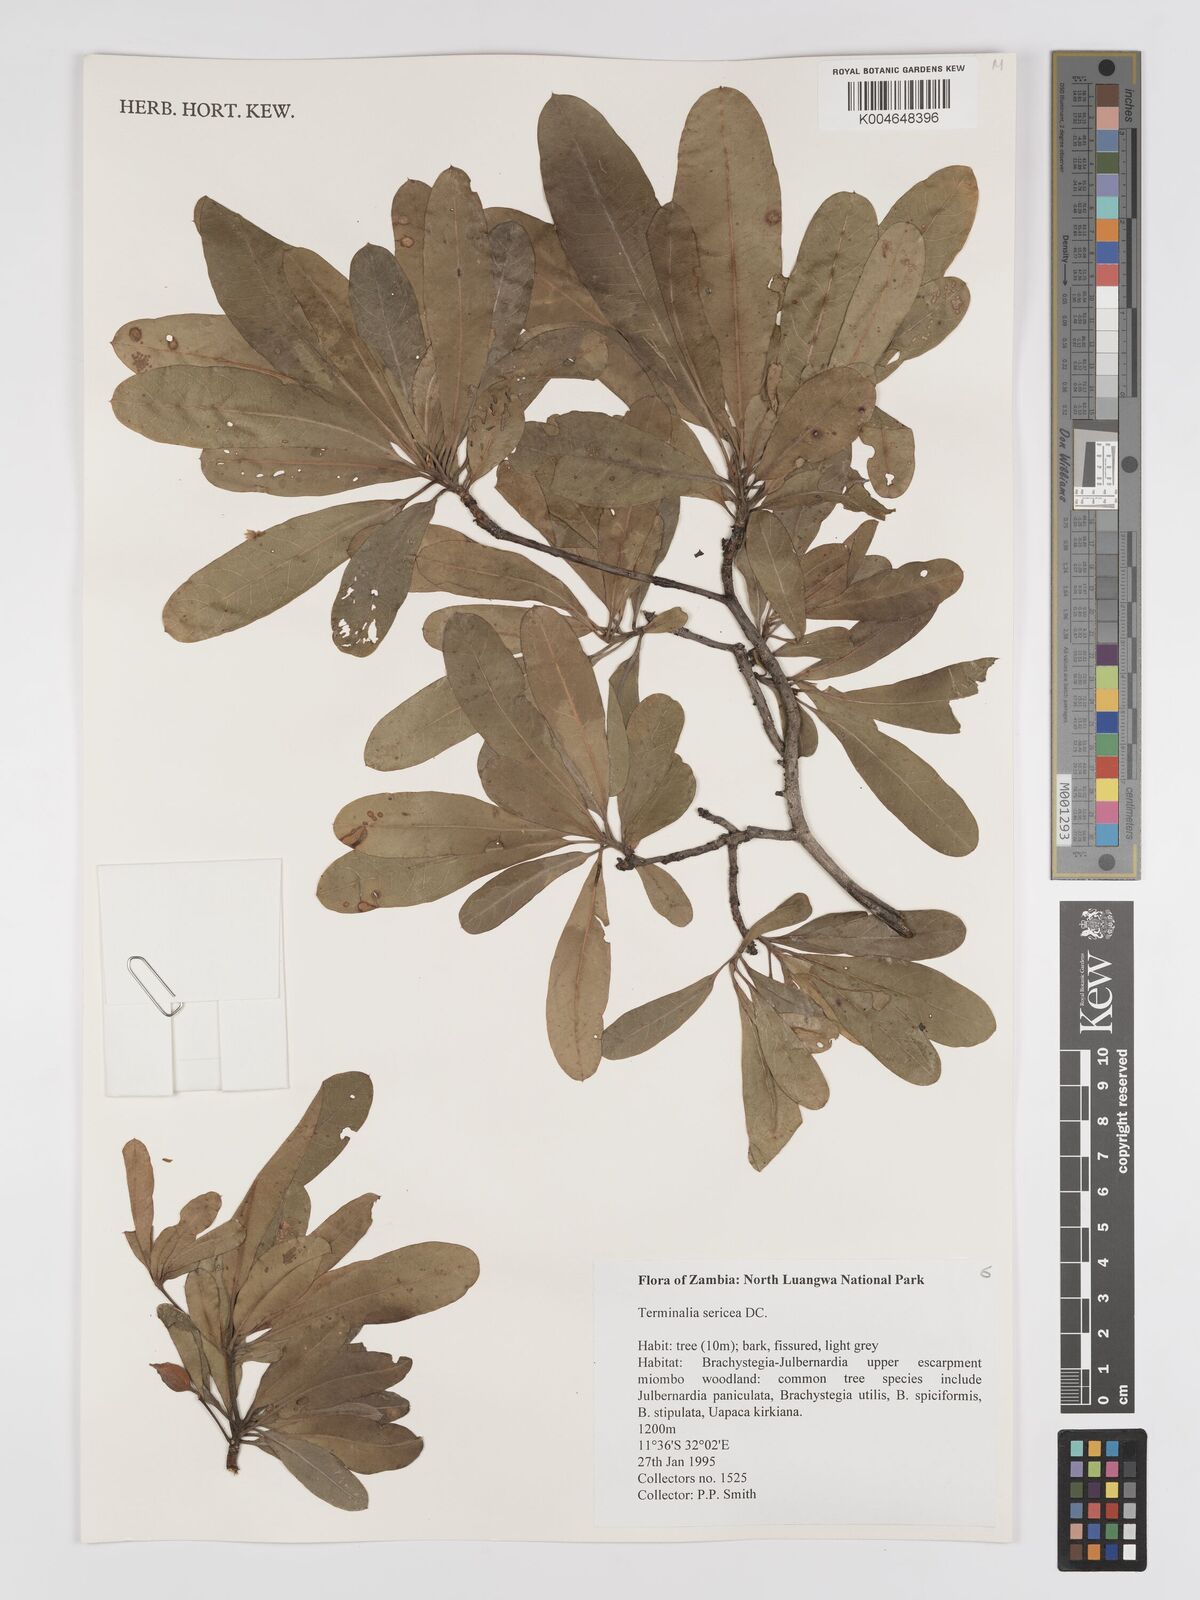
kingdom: Plantae
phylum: Tracheophyta
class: Magnoliopsida
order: Myrtales
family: Combretaceae
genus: Terminalia
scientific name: Terminalia
